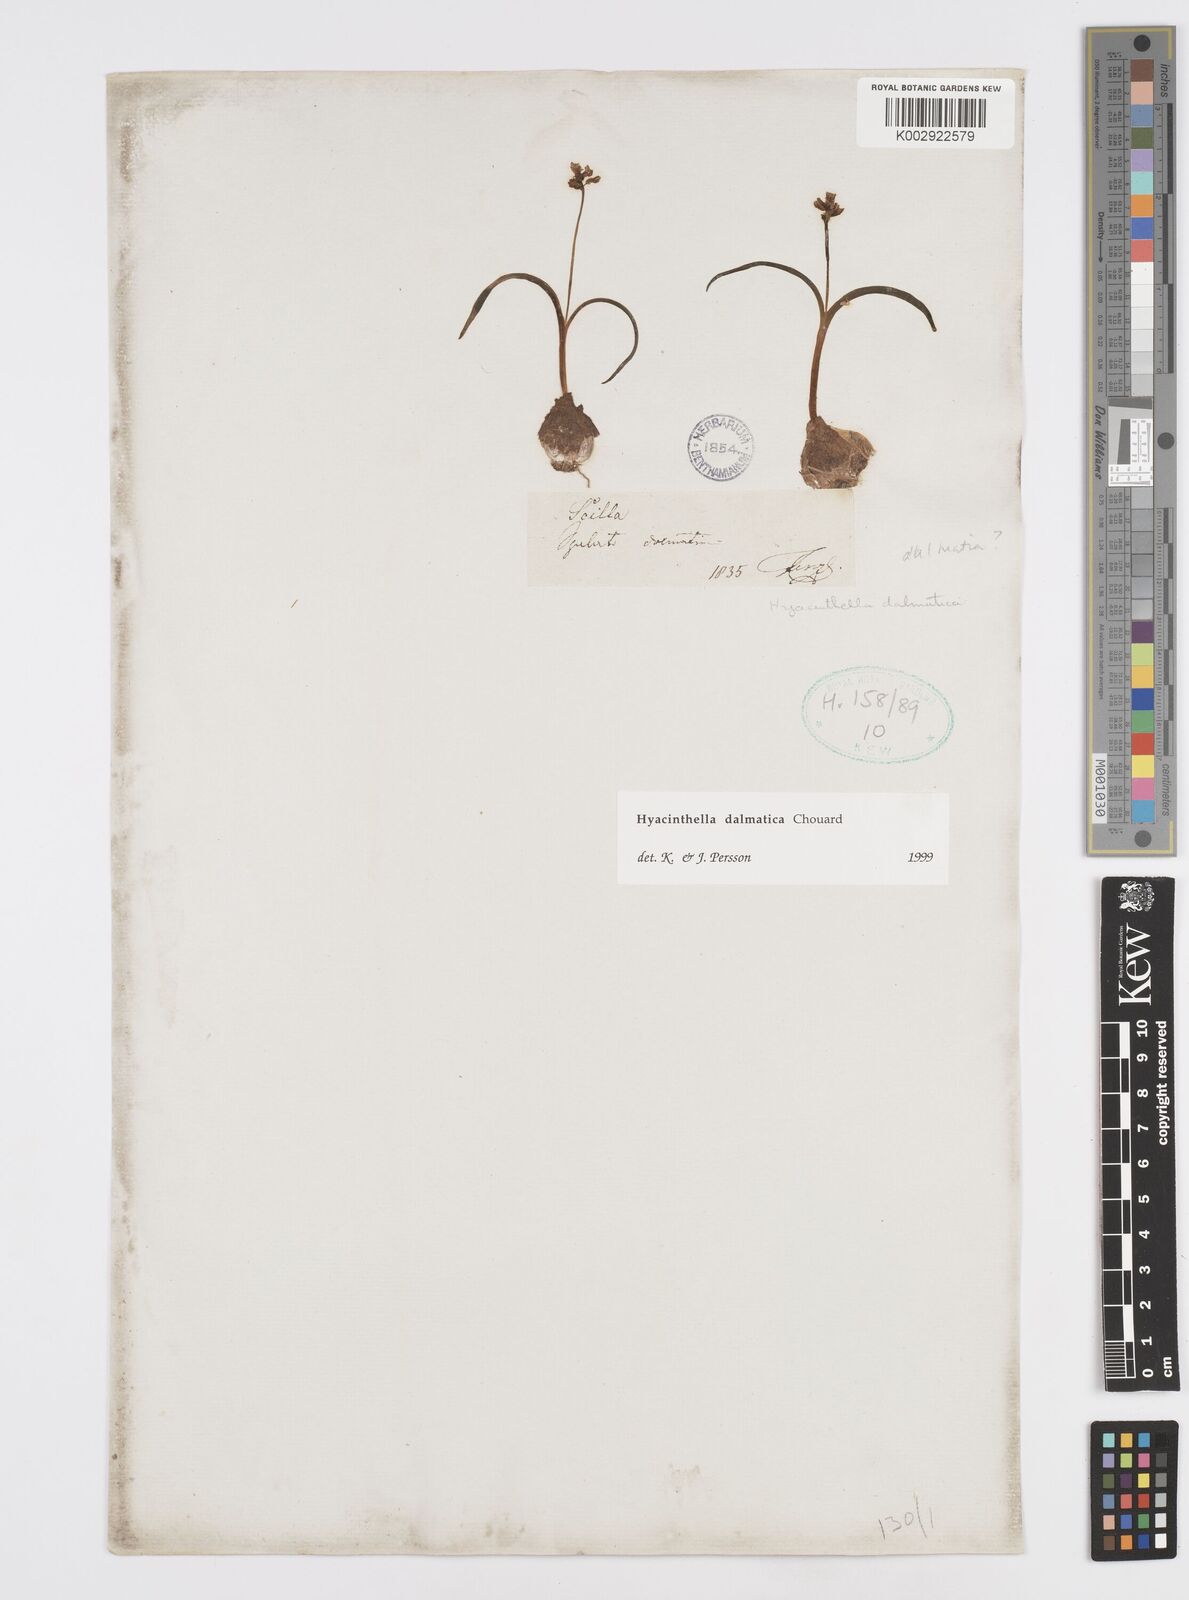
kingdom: Plantae
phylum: Tracheophyta
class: Liliopsida
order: Asparagales
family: Asparagaceae
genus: Hyacinthella
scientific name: Hyacinthella leucophaea
